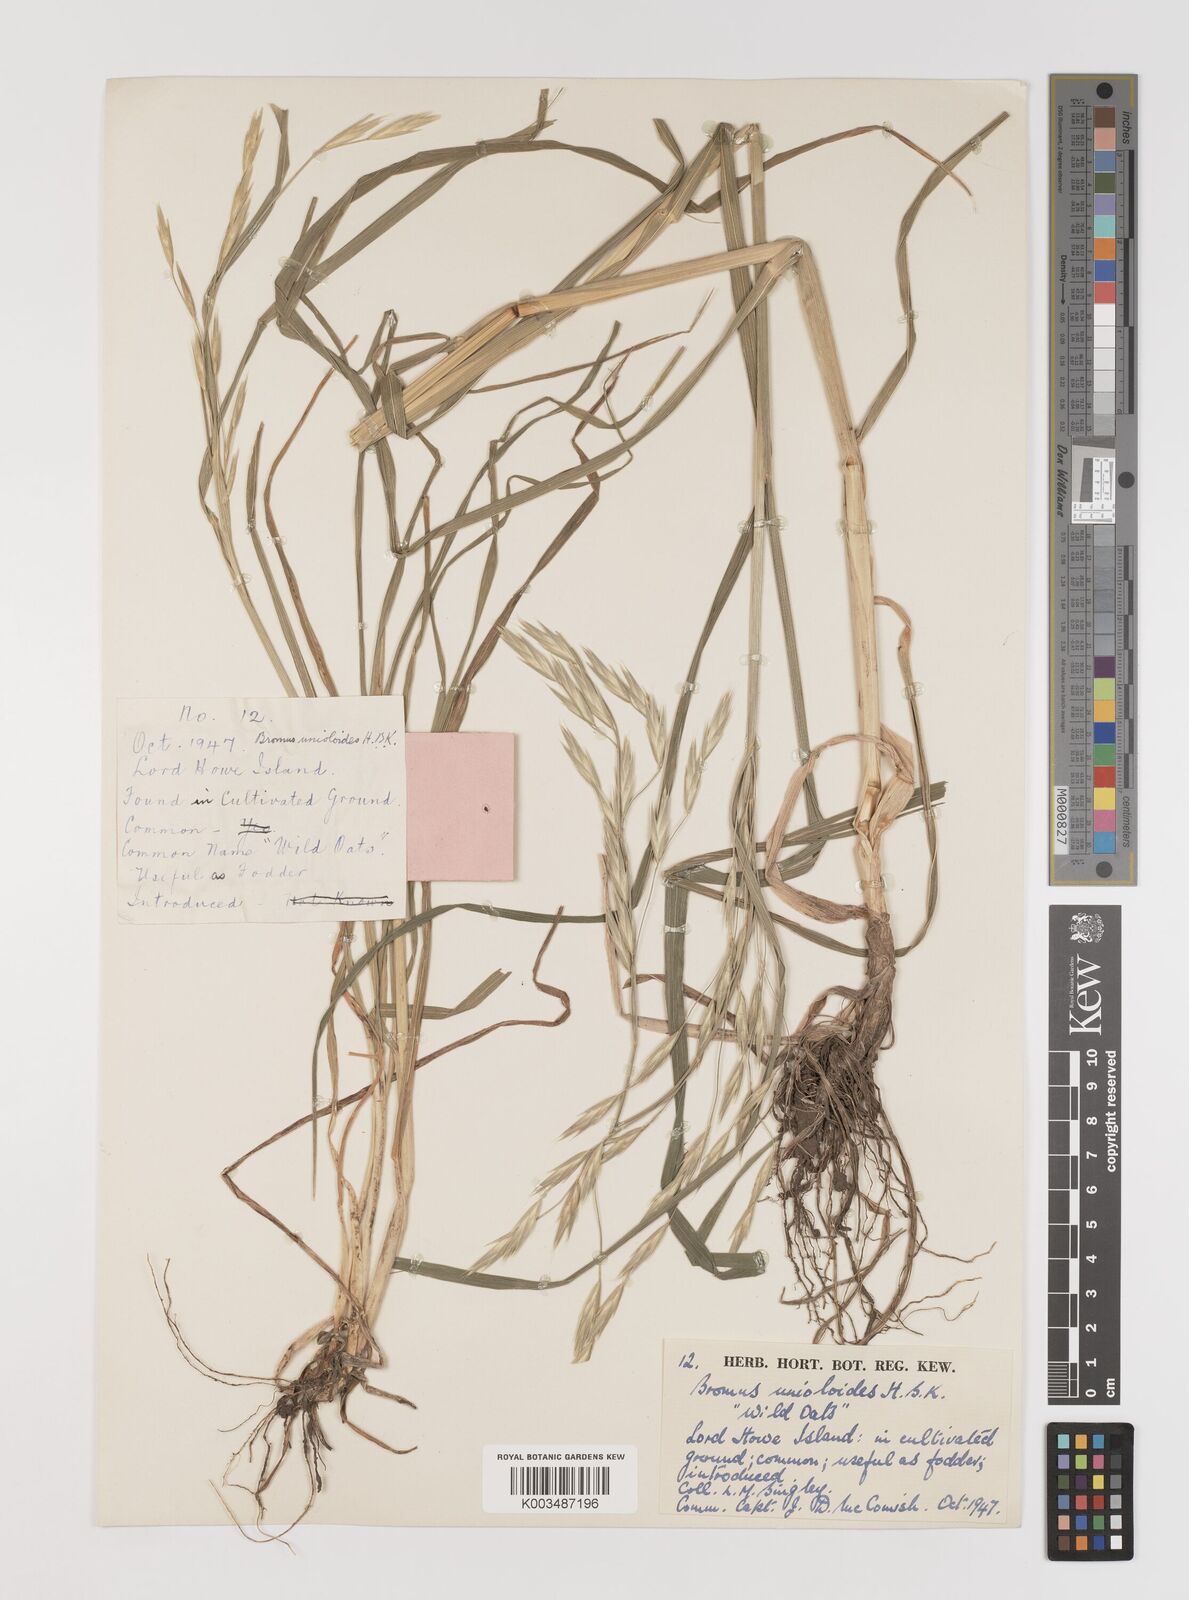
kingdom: Plantae
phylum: Tracheophyta
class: Liliopsida
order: Poales
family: Poaceae
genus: Bromus
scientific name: Bromus catharticus
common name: Rescuegrass
